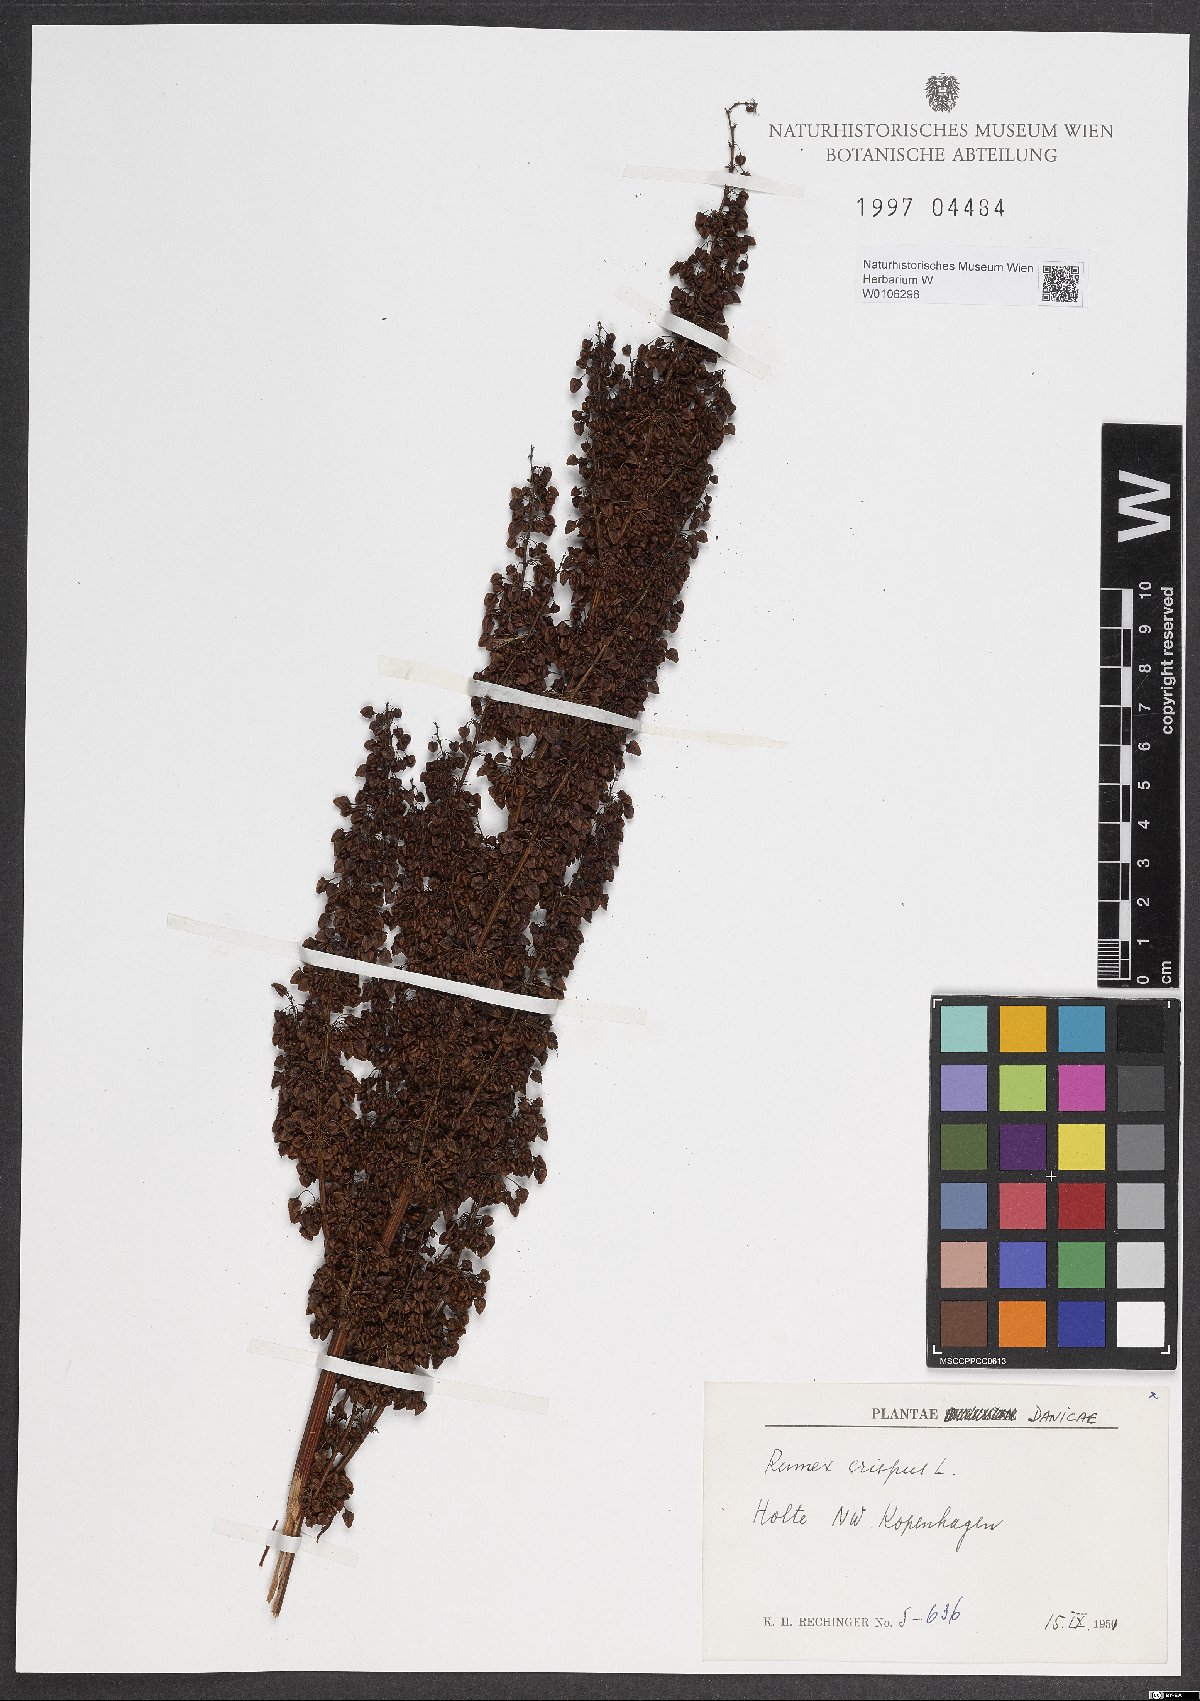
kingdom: Plantae
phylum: Tracheophyta
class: Magnoliopsida
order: Caryophyllales
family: Polygonaceae
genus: Rumex
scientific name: Rumex crispus
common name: Curled dock
